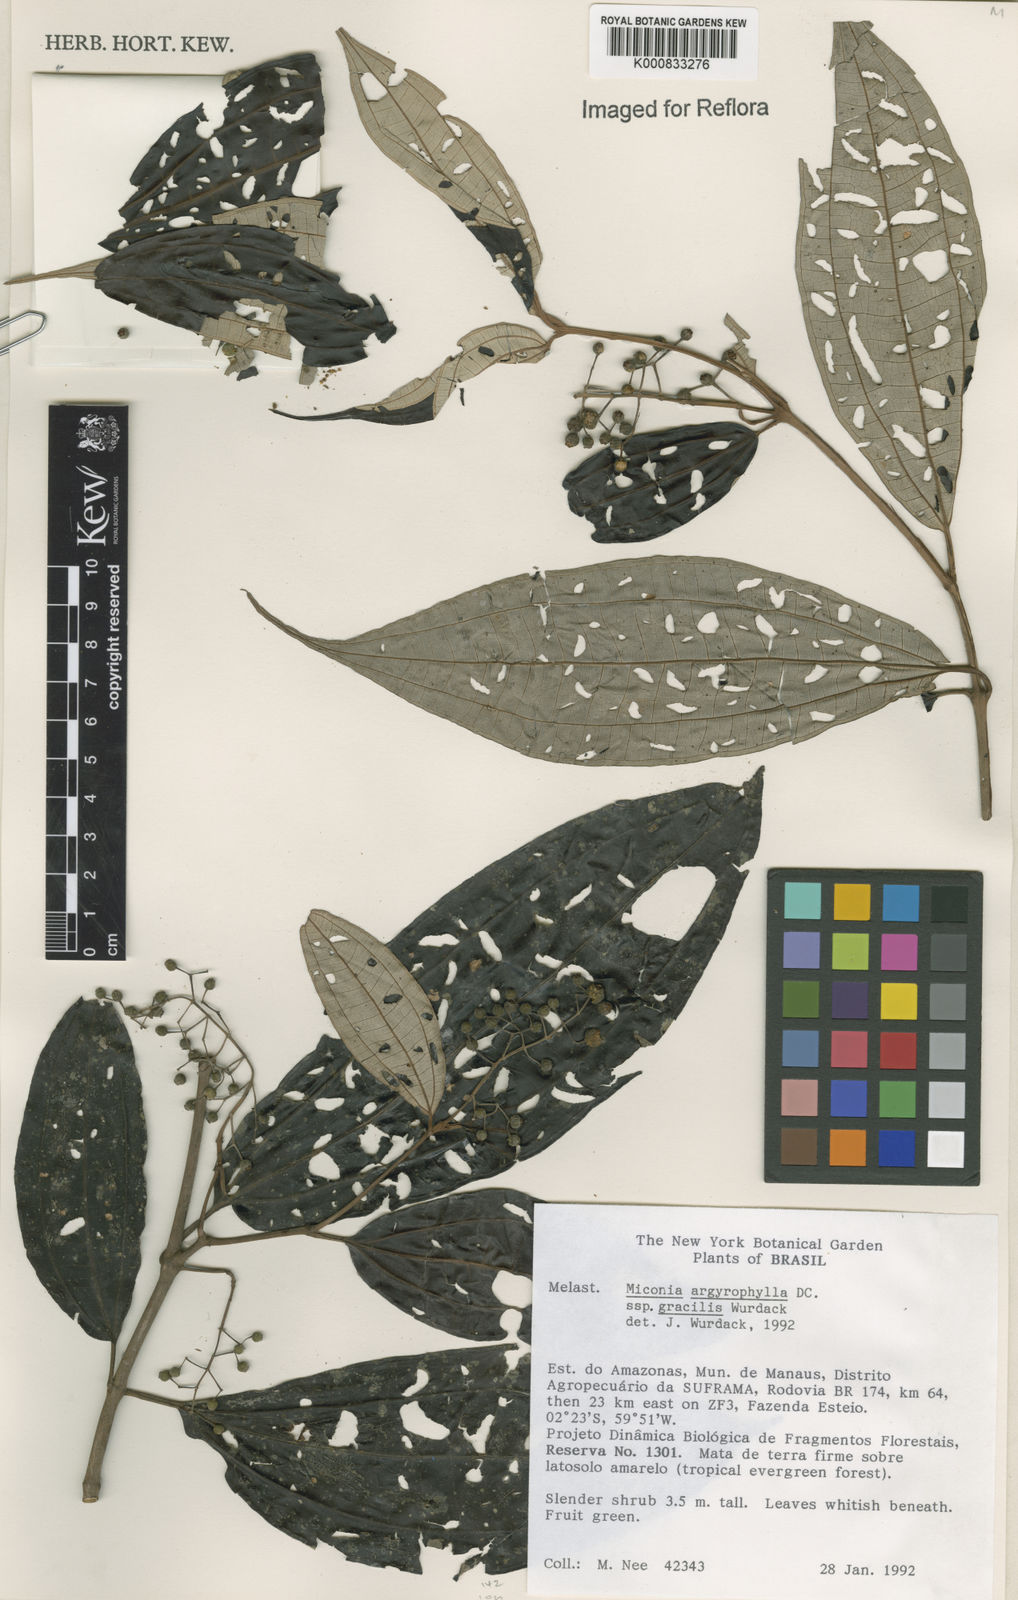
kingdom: Plantae
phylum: Tracheophyta
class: Magnoliopsida
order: Myrtales
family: Melastomataceae
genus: Miconia
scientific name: Miconia argyrophylla
